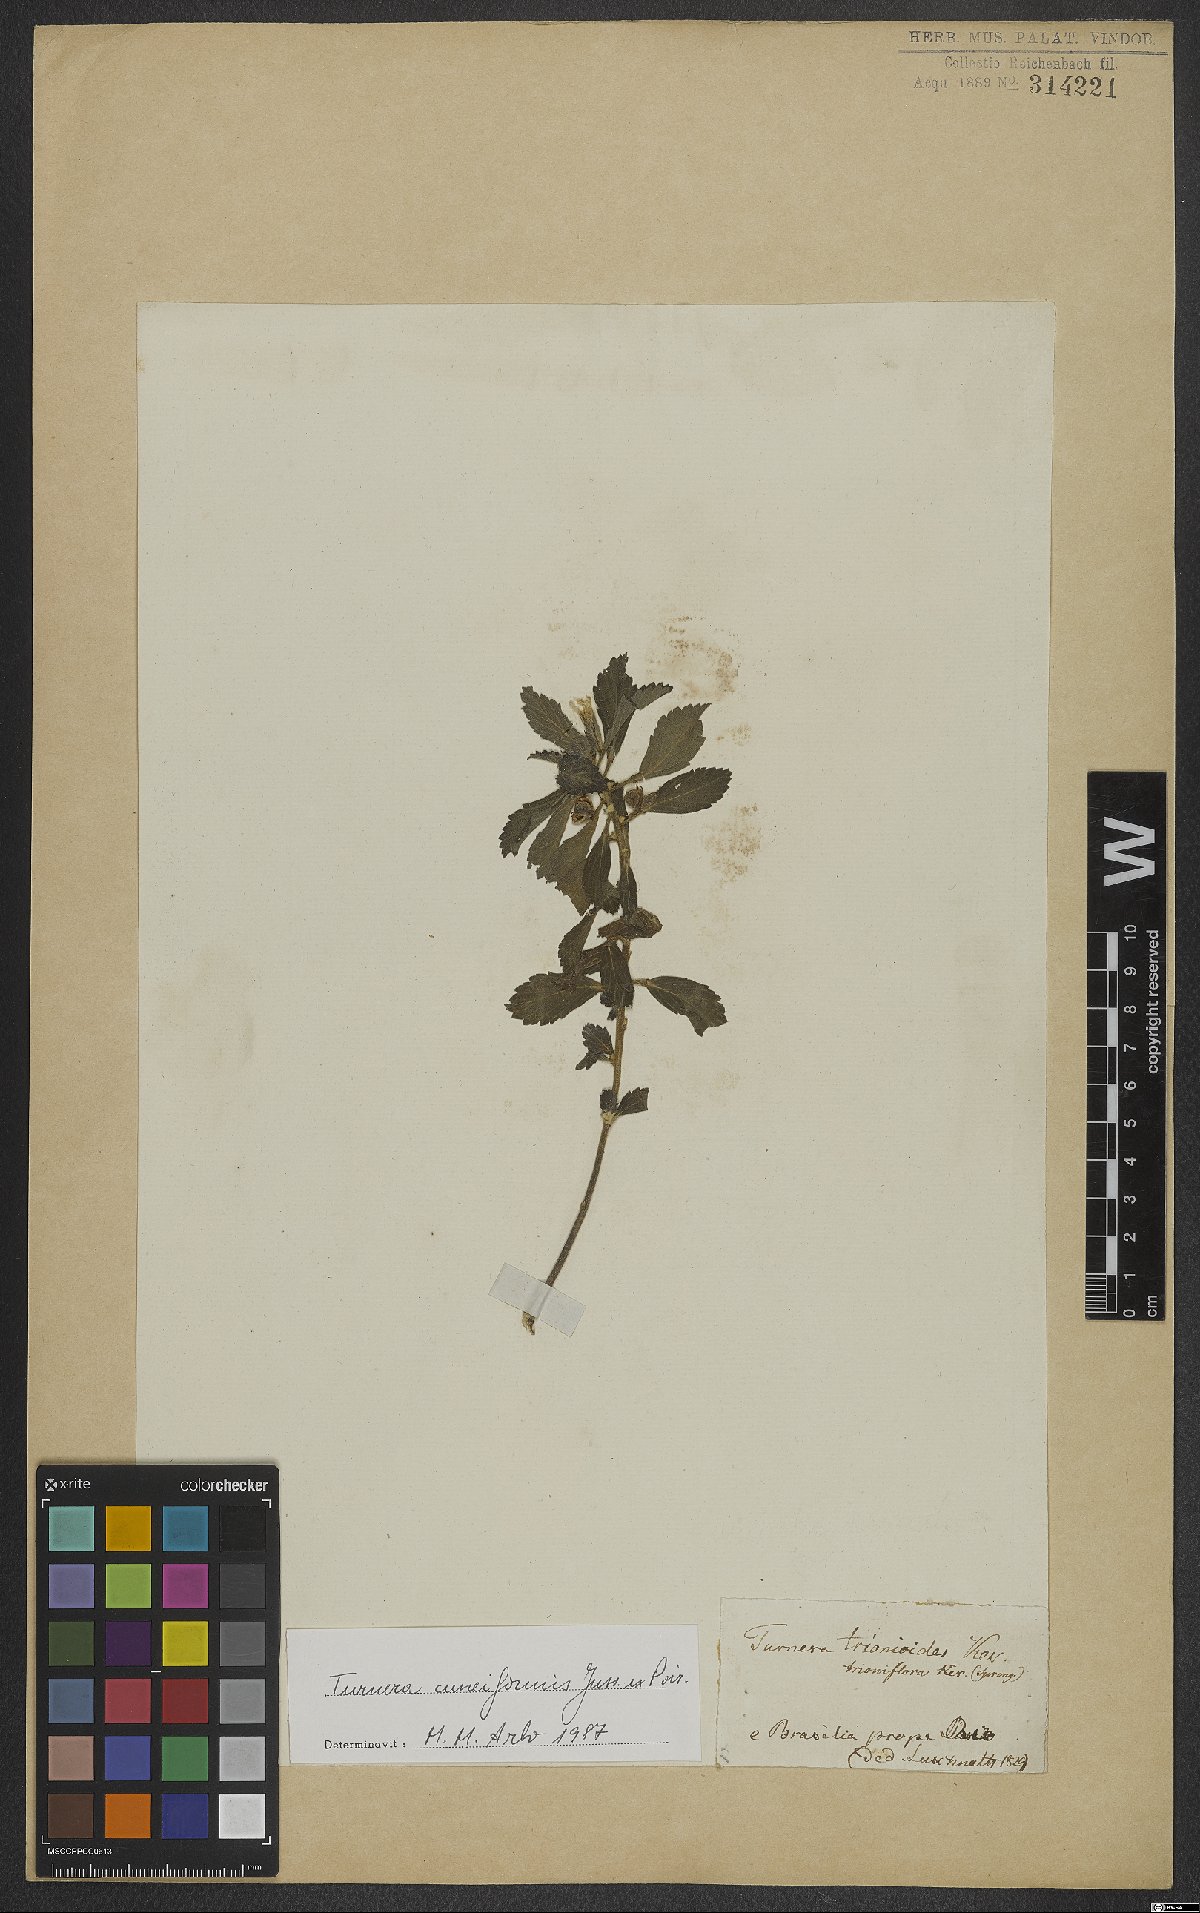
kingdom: Plantae
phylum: Tracheophyta
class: Magnoliopsida
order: Malpighiales
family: Turneraceae
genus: Turnera
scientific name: Turnera cuneiformis
